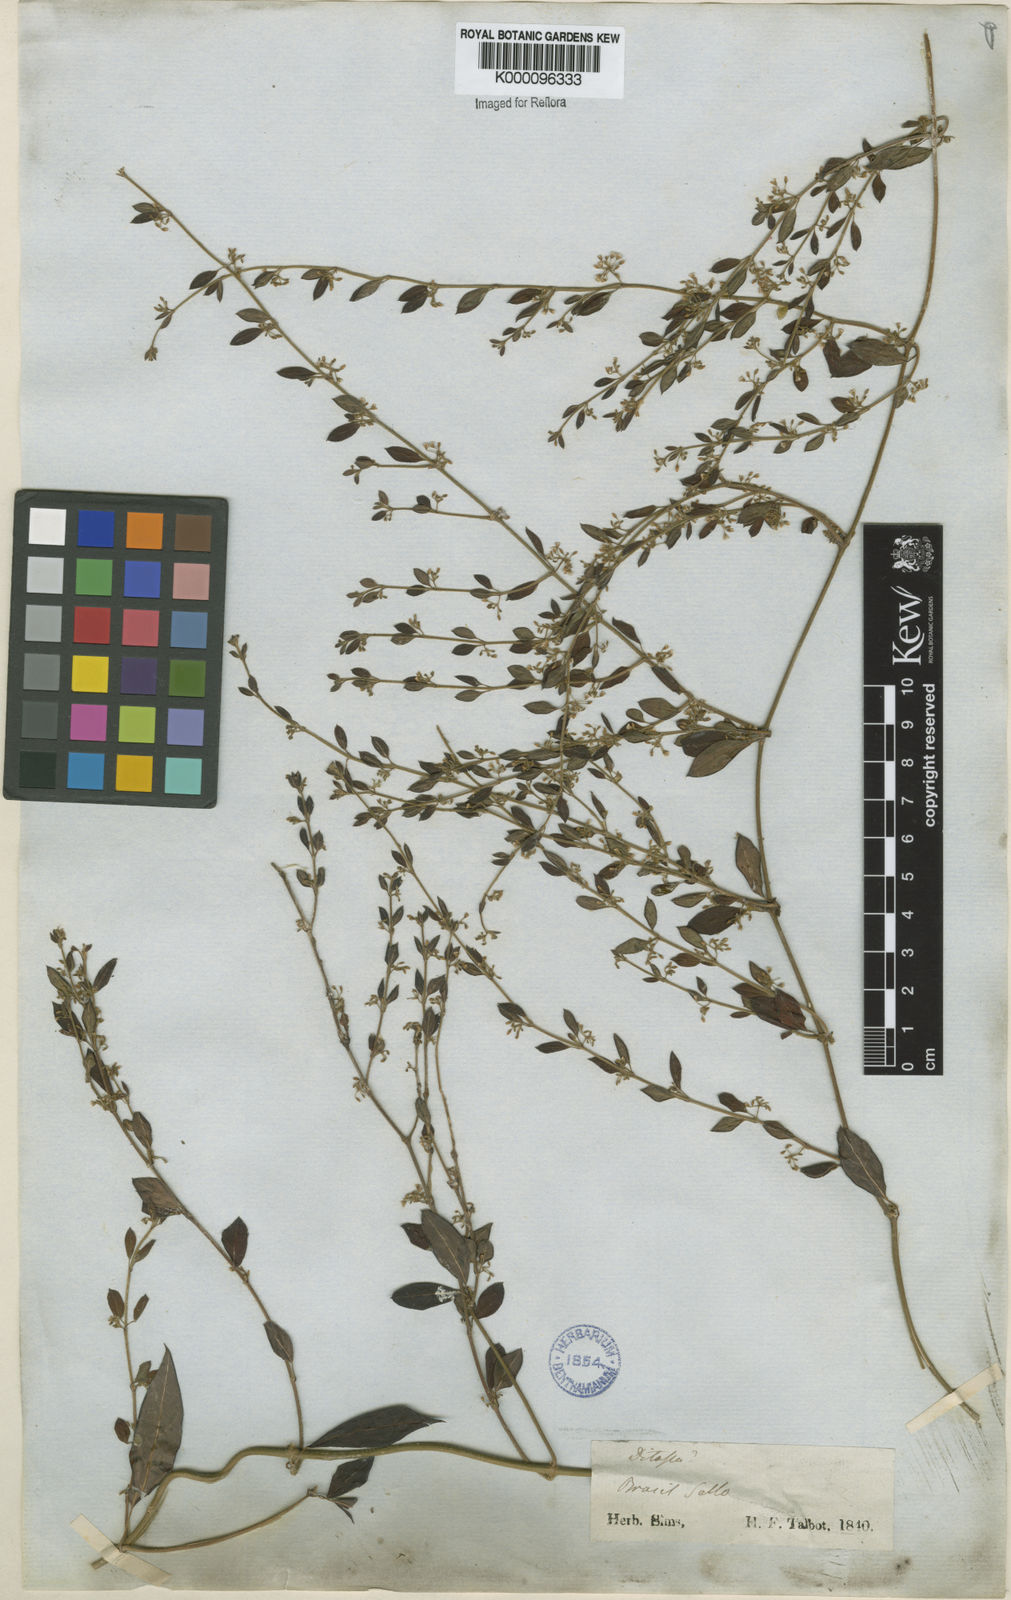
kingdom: Plantae
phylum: Tracheophyta
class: Magnoliopsida
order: Gentianales
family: Apocynaceae
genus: Metastelma
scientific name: Metastelma burchellii
